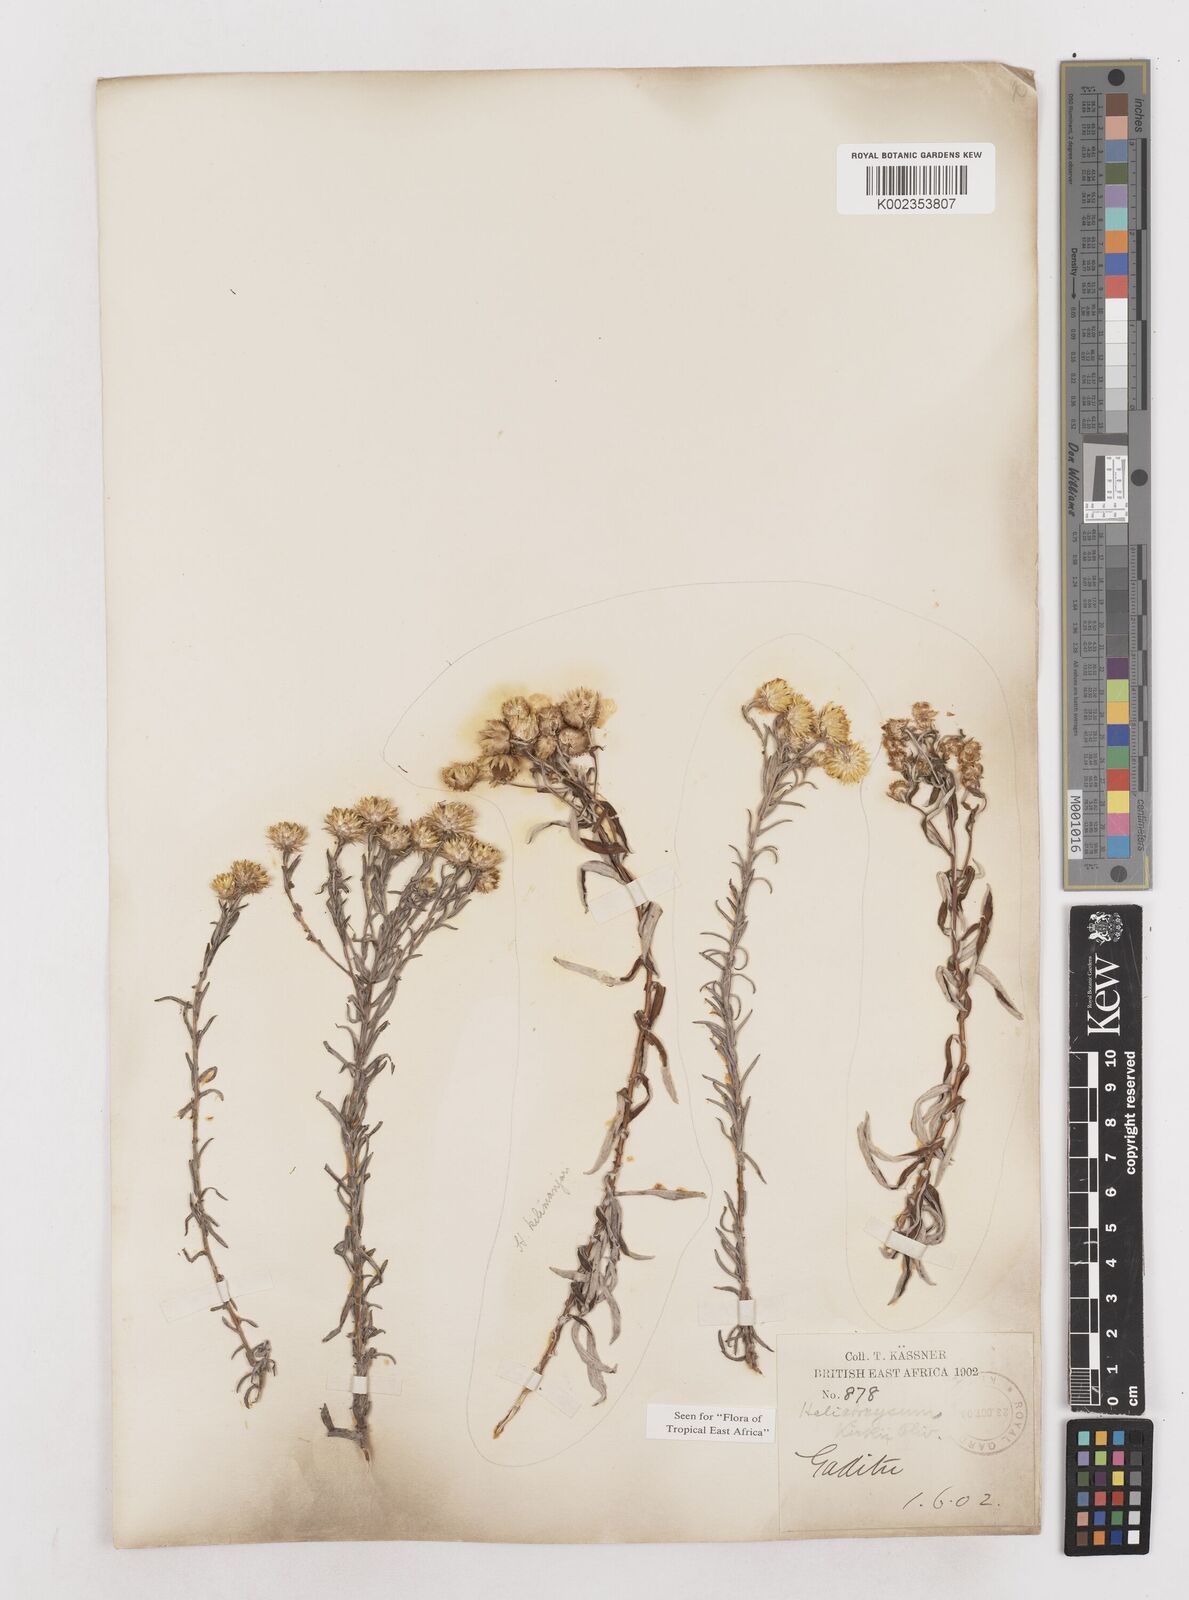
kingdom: Plantae
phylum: Tracheophyta
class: Magnoliopsida
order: Asterales
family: Asteraceae
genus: Helichrysum
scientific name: Helichrysum kirkii
